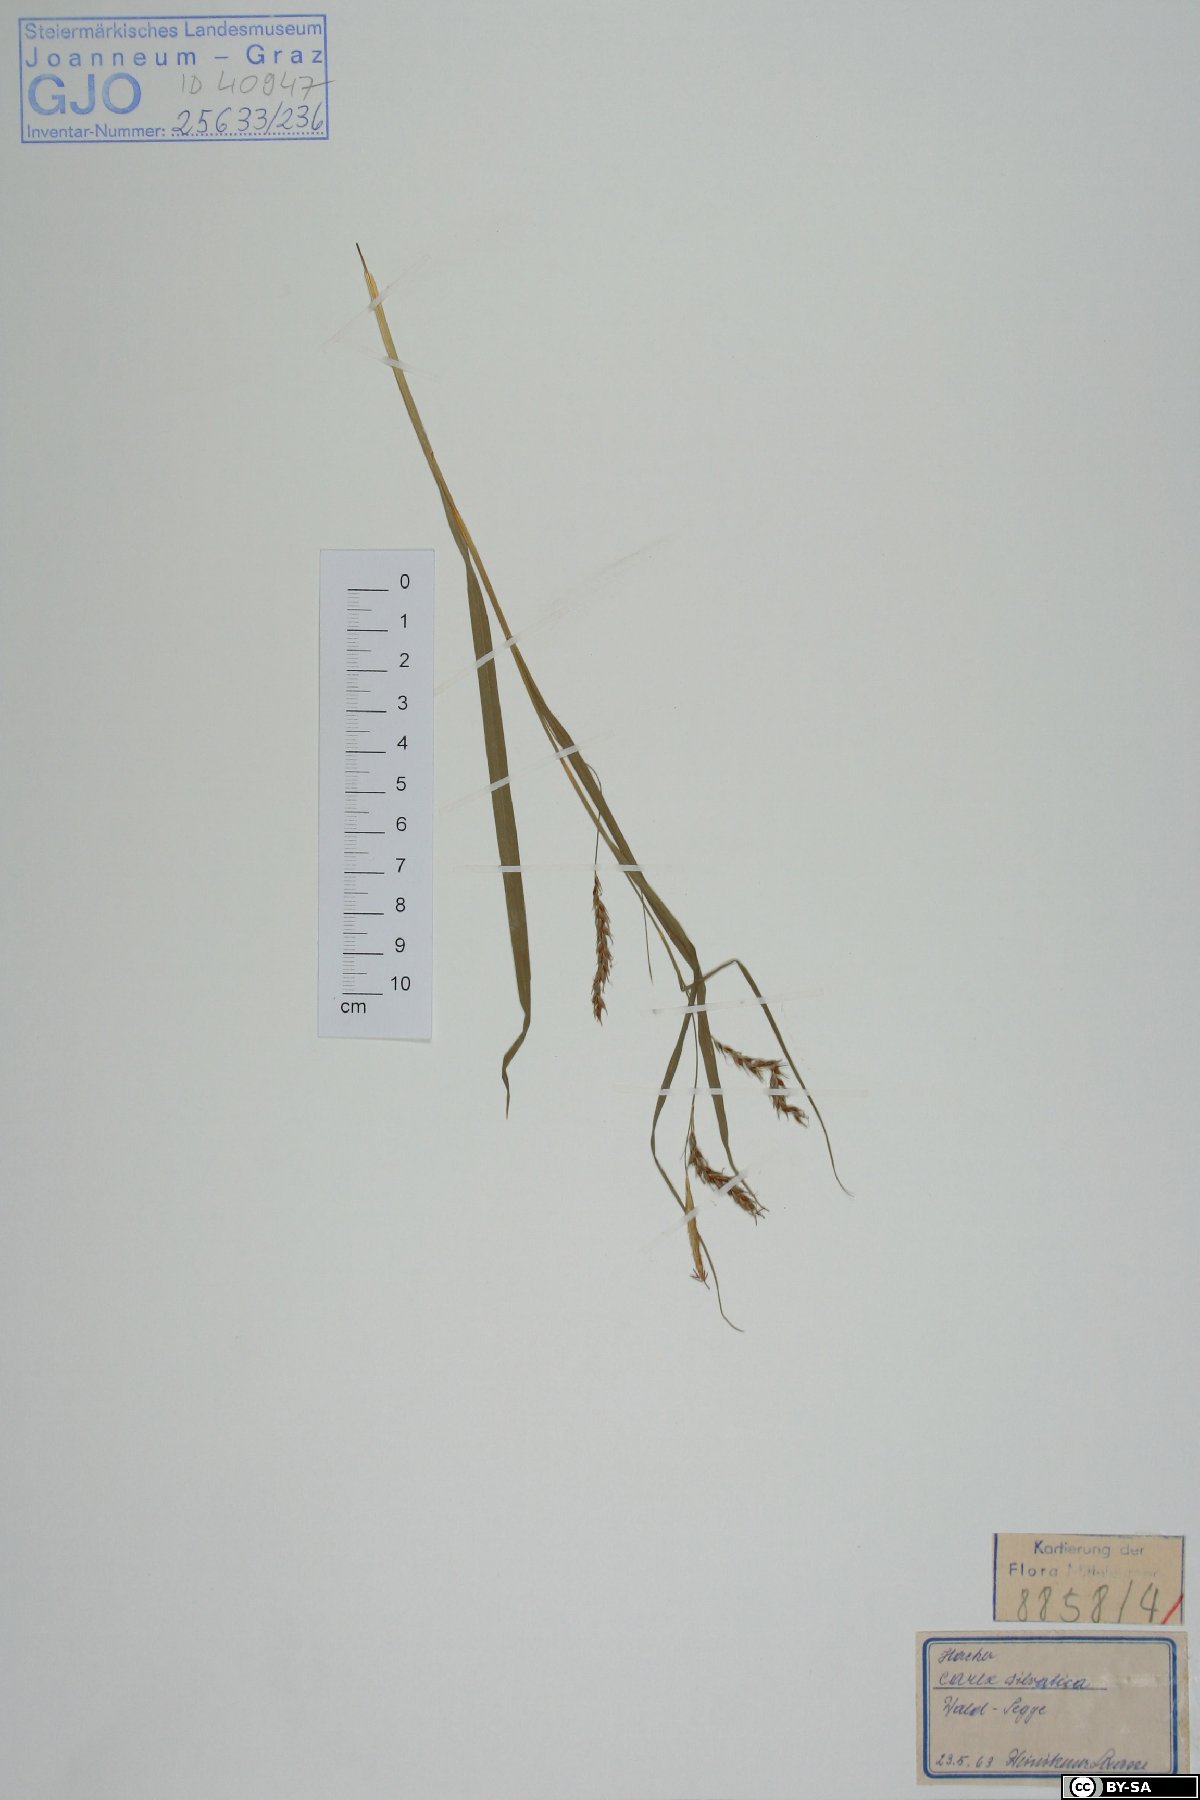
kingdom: Plantae
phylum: Tracheophyta
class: Liliopsida
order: Poales
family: Cyperaceae
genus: Carex
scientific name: Carex sylvatica
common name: Wood-sedge
